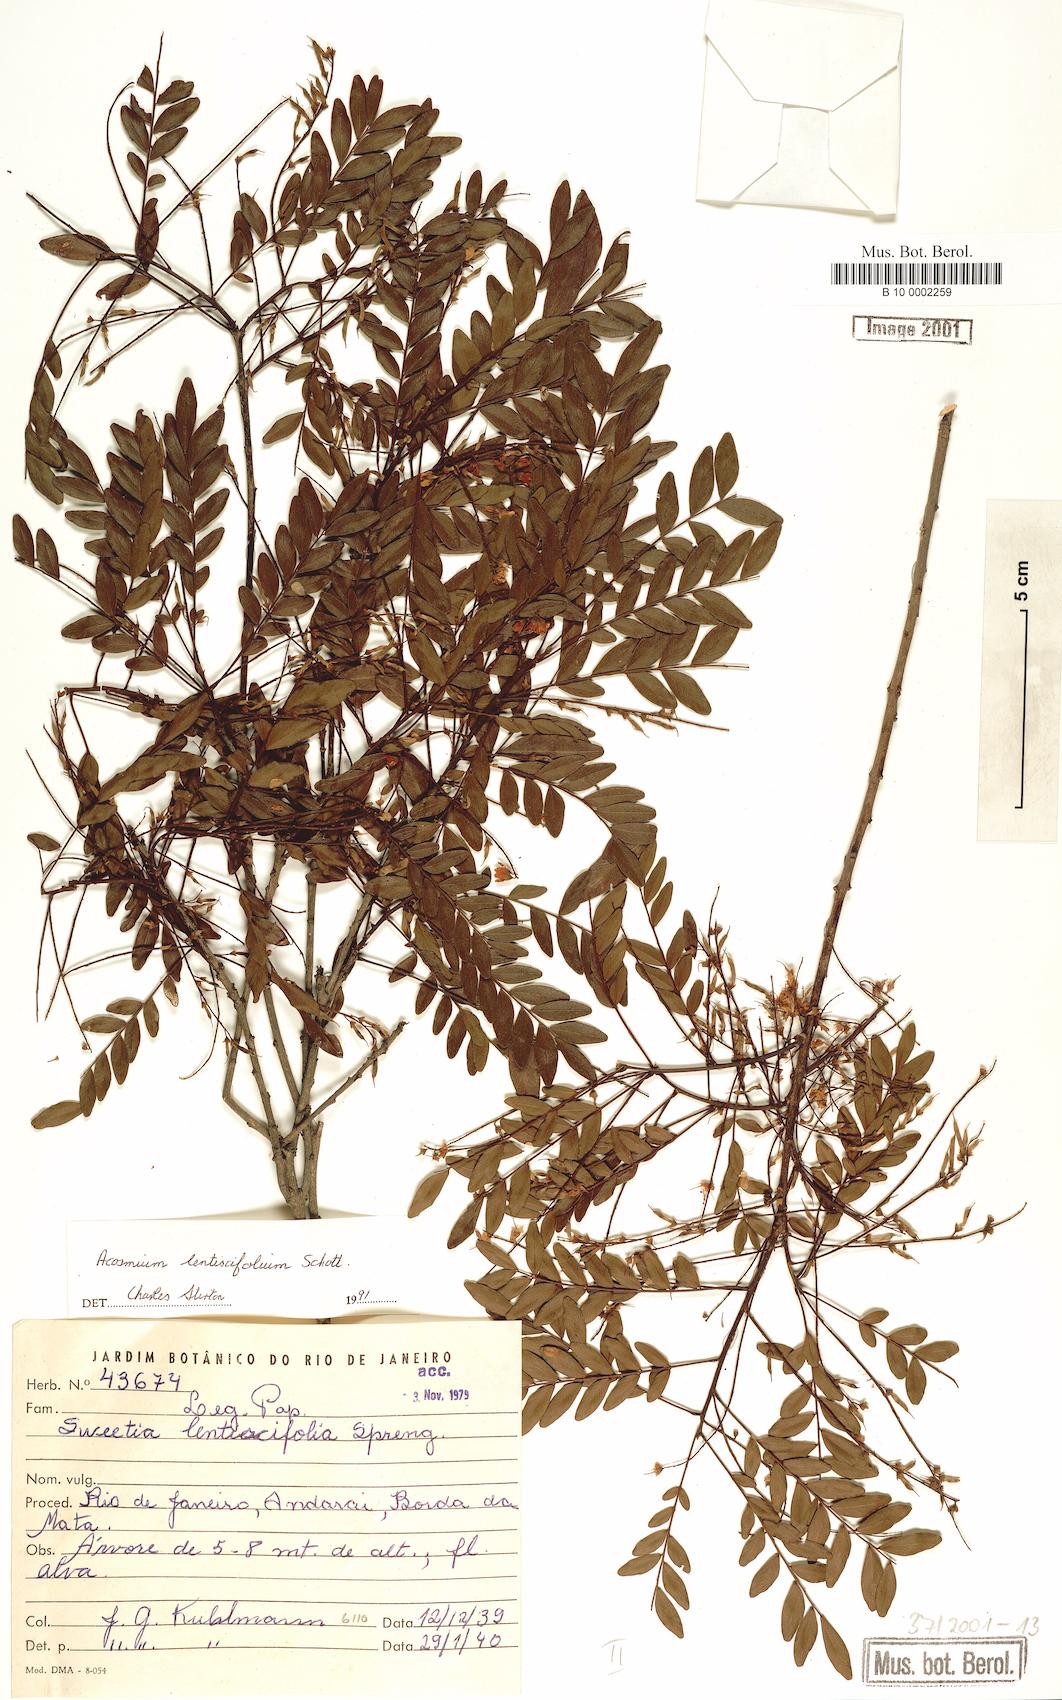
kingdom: Plantae
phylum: Tracheophyta
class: Magnoliopsida
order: Fabales
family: Fabaceae
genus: Acosmium
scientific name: Acosmium lentiscifolium
